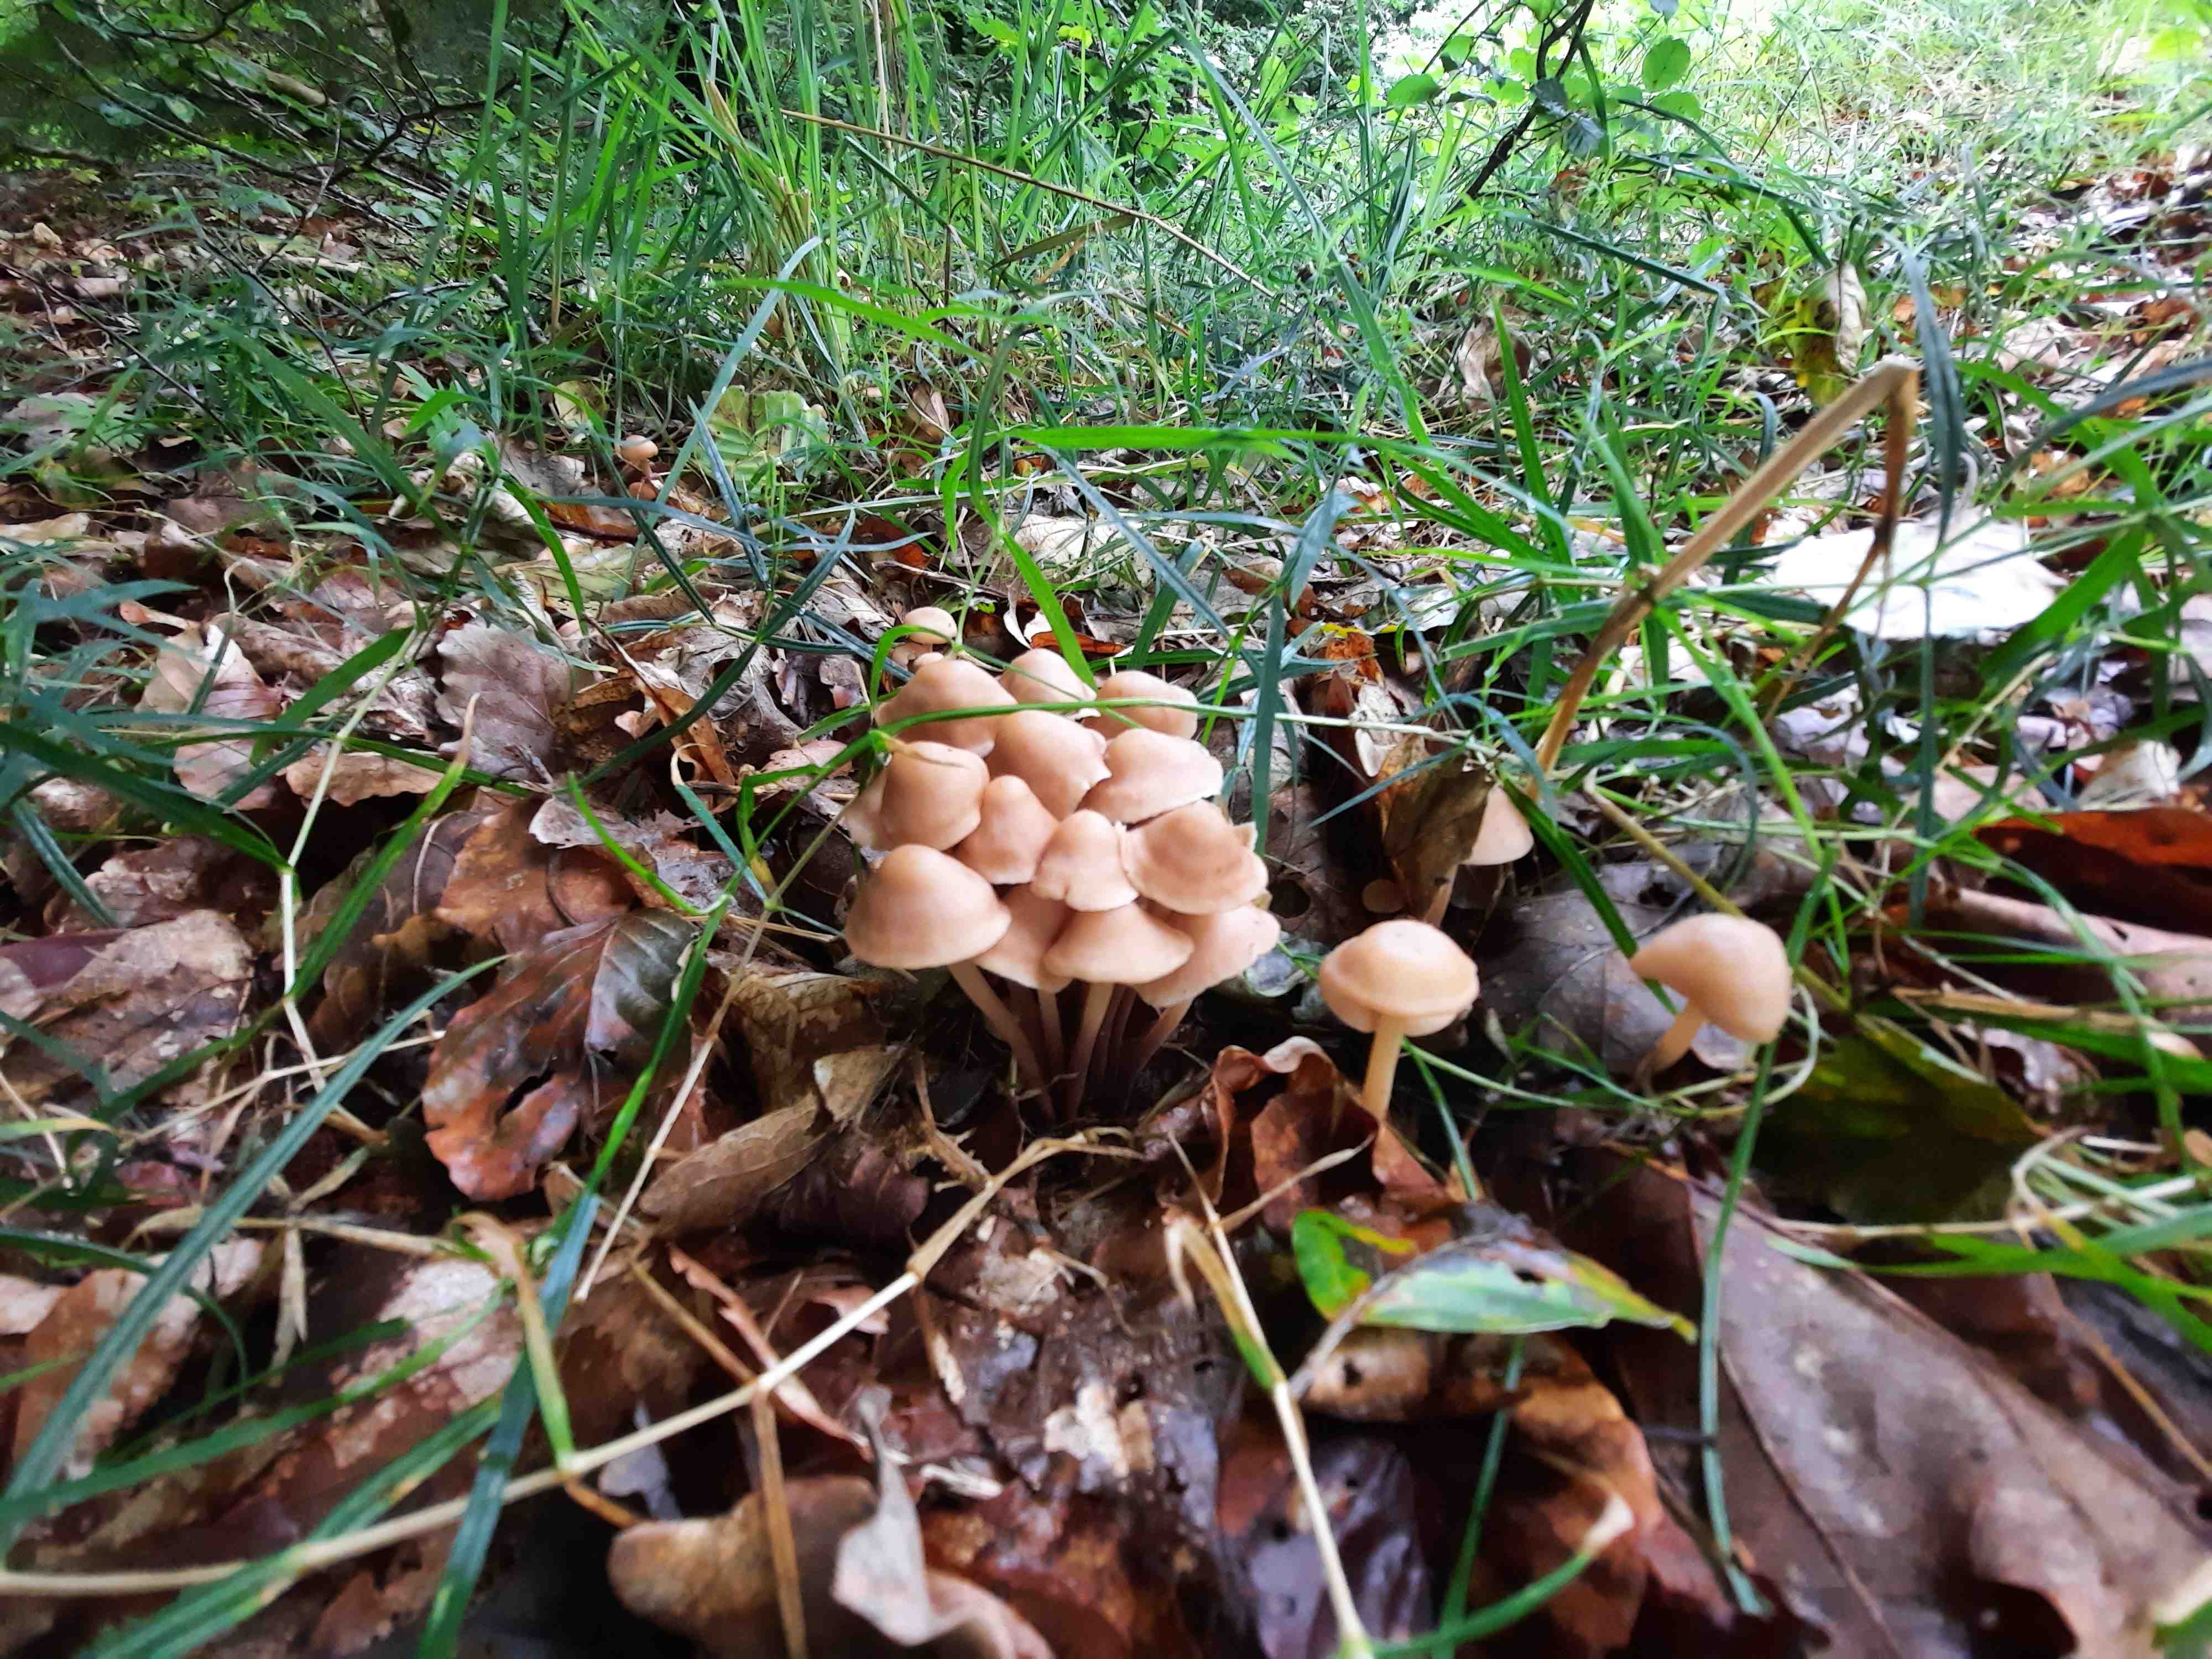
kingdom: Fungi
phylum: Basidiomycota
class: Agaricomycetes
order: Agaricales
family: Omphalotaceae
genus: Collybiopsis
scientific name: Collybiopsis confluens
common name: knippe-fladhat
